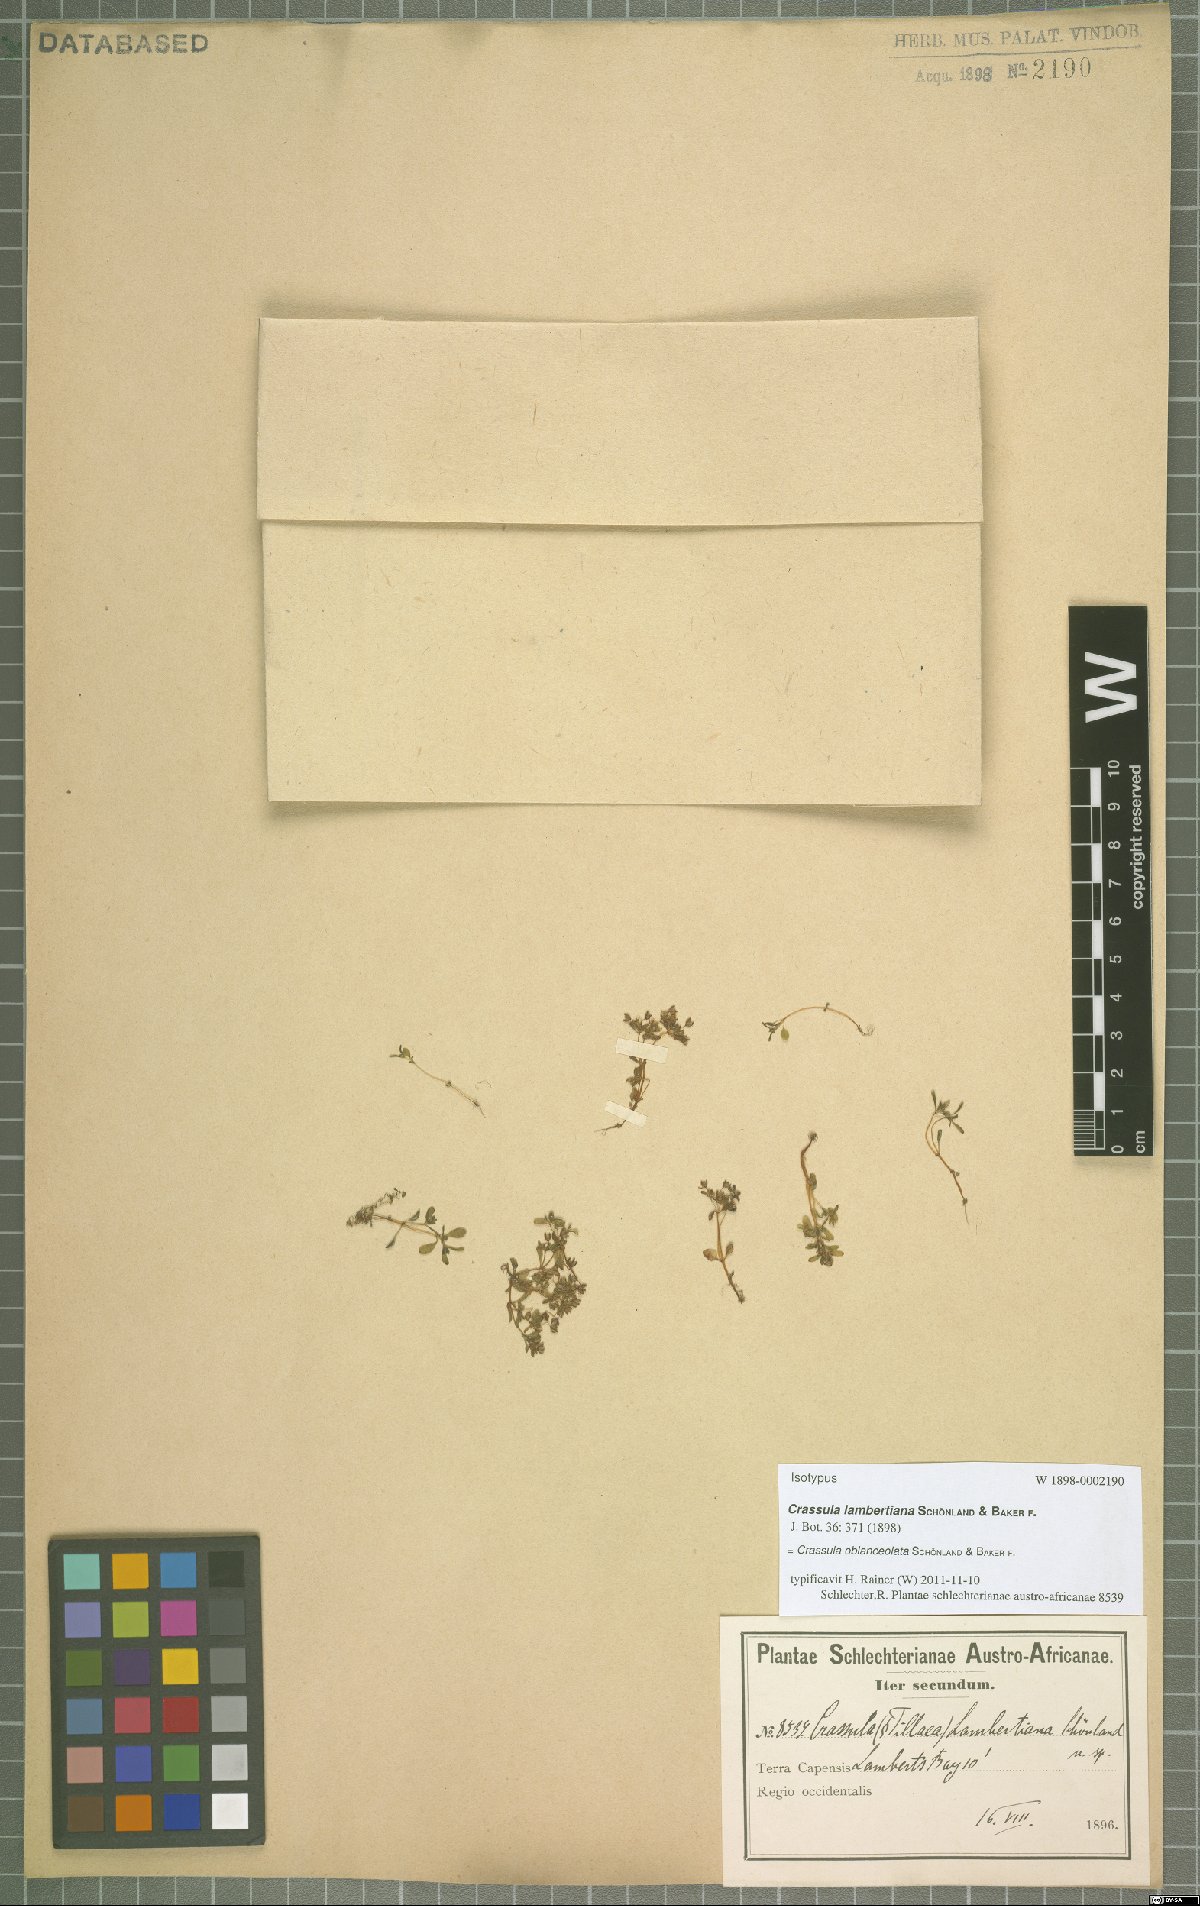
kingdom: Plantae
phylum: Tracheophyta
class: Magnoliopsida
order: Saxifragales
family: Crassulaceae
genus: Crassula
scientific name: Crassula oblanceolata
